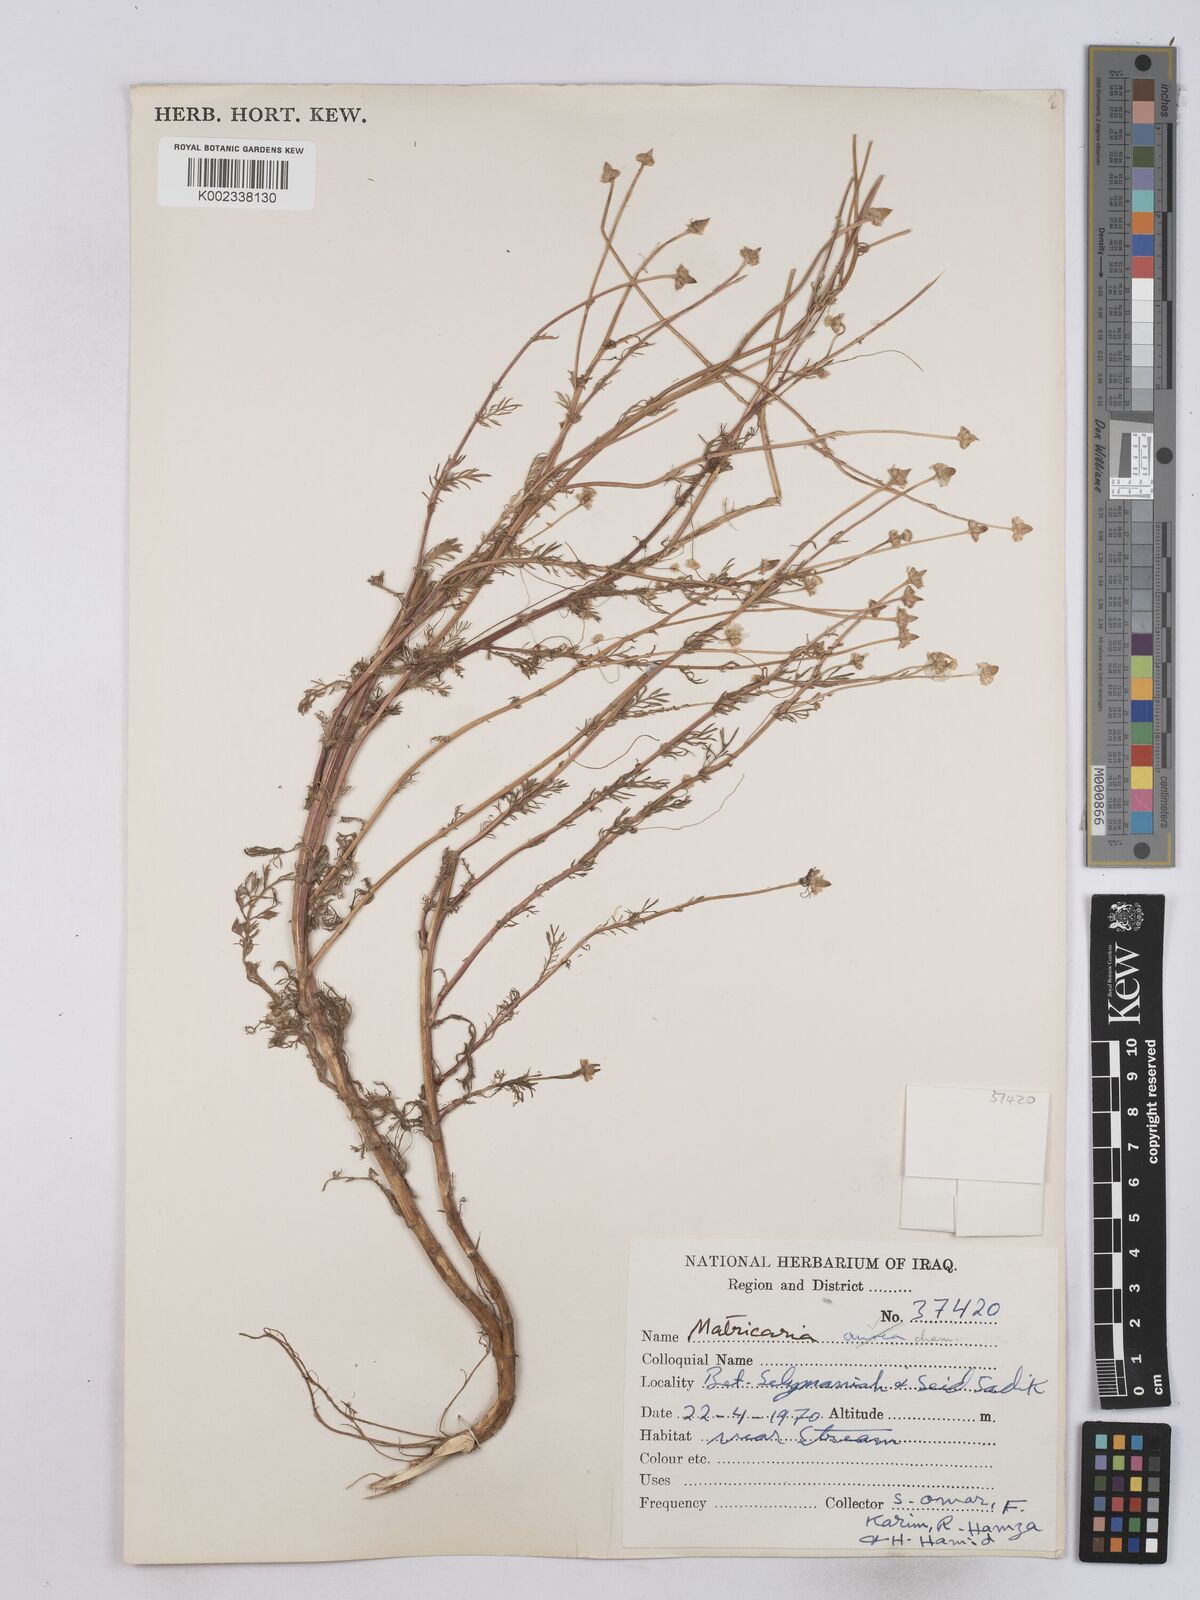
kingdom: Plantae
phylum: Tracheophyta
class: Magnoliopsida
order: Asterales
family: Asteraceae
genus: Matricaria
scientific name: Matricaria chamomilla
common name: Scented mayweed
